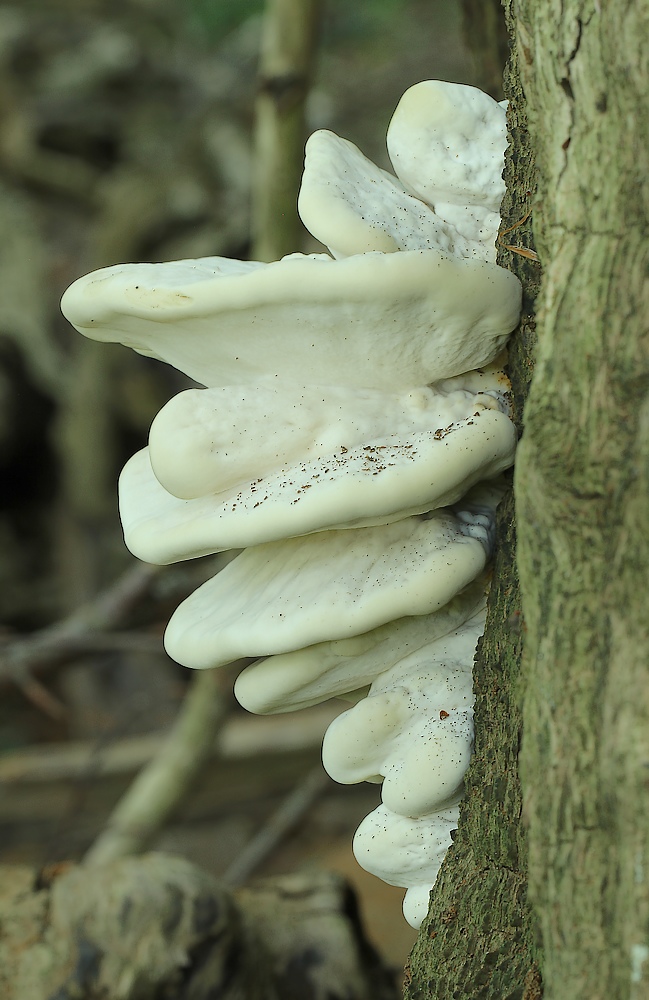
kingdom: Fungi
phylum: Basidiomycota
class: Agaricomycetes
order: Polyporales
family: Laetiporaceae
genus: Laetiporus
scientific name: Laetiporus sulphureus
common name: svovlporesvamp
